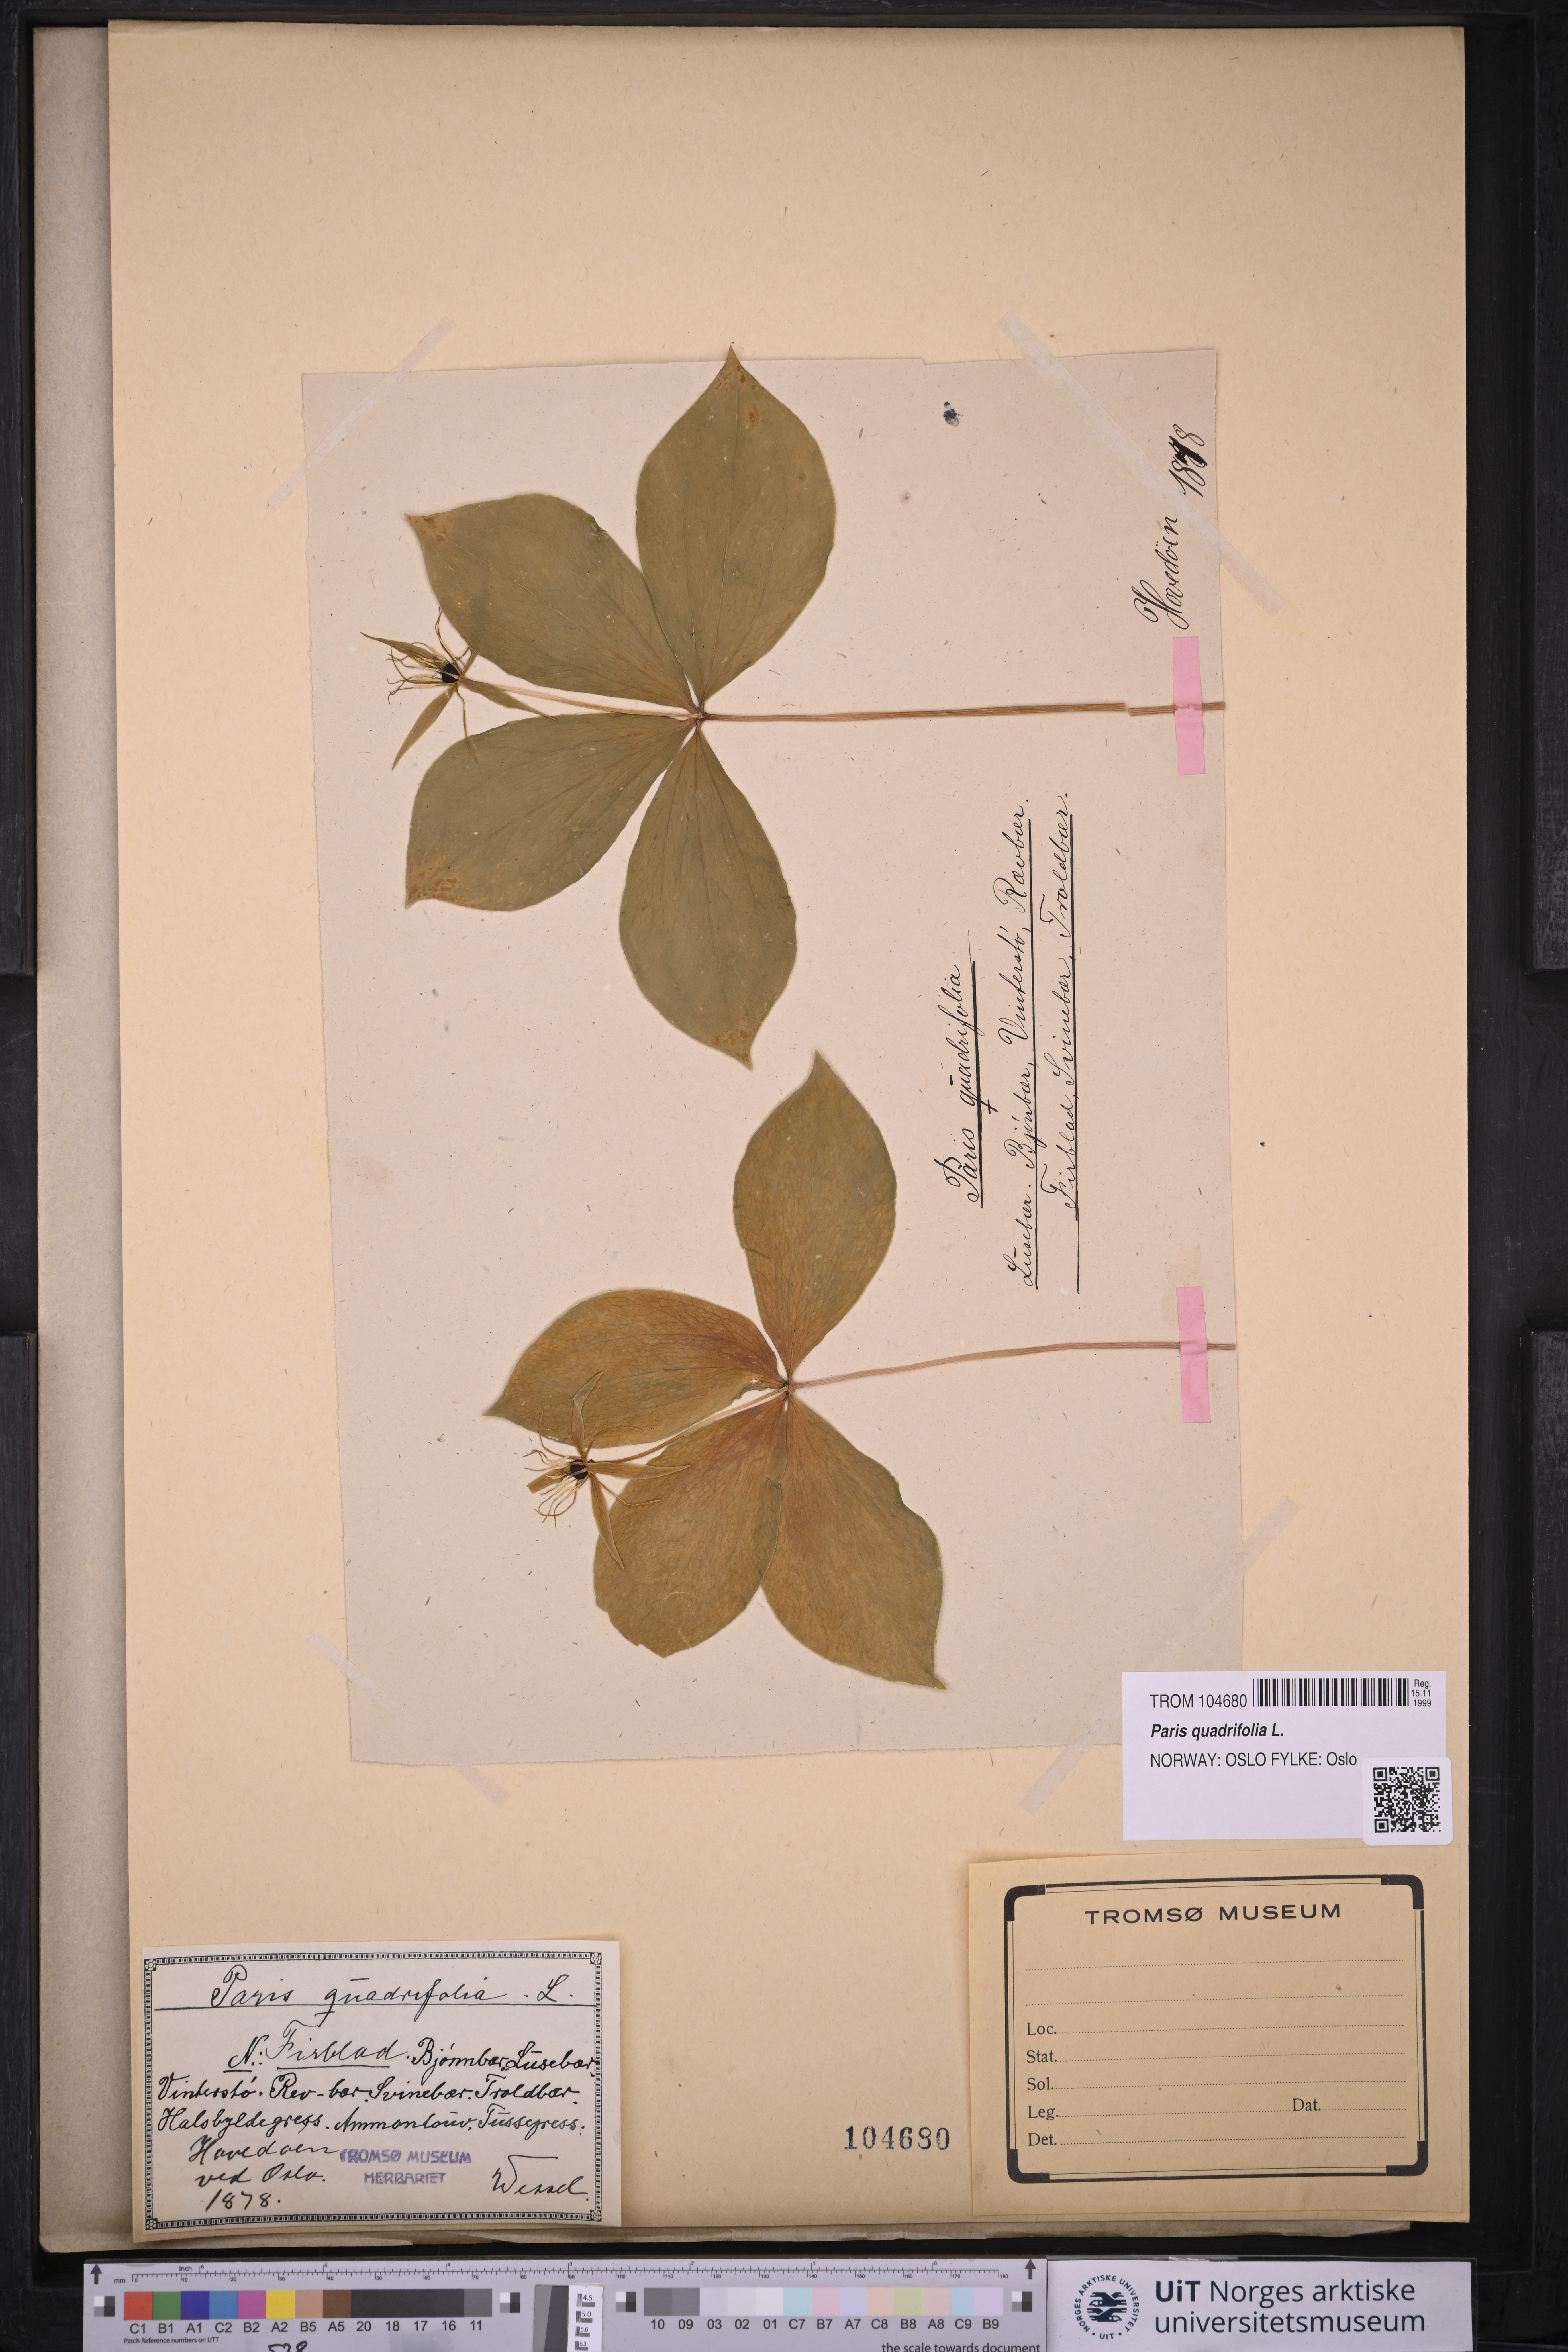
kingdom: Plantae
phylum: Tracheophyta
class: Liliopsida
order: Liliales
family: Melanthiaceae
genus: Paris
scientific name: Paris quadrifolia
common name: Herb-paris
